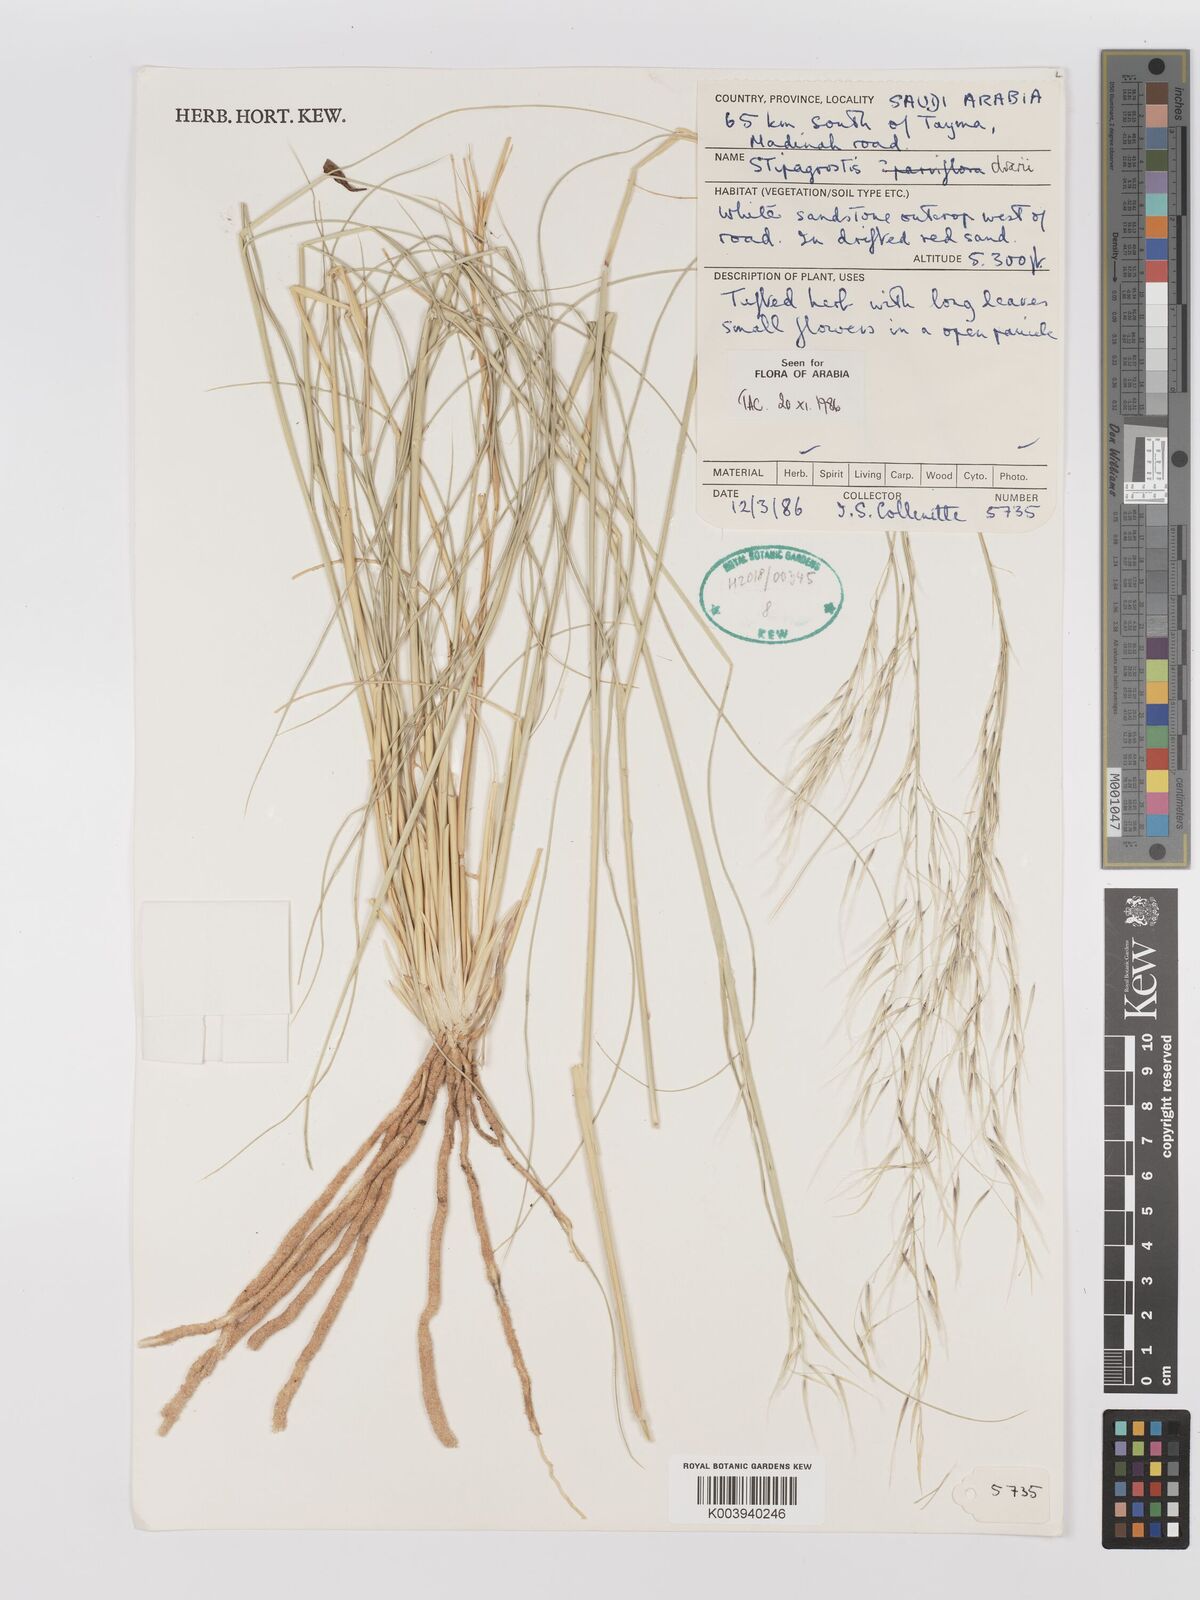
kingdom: Plantae
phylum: Tracheophyta
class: Liliopsida
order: Poales
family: Poaceae
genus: Stipagrostis
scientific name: Stipagrostis drarii
